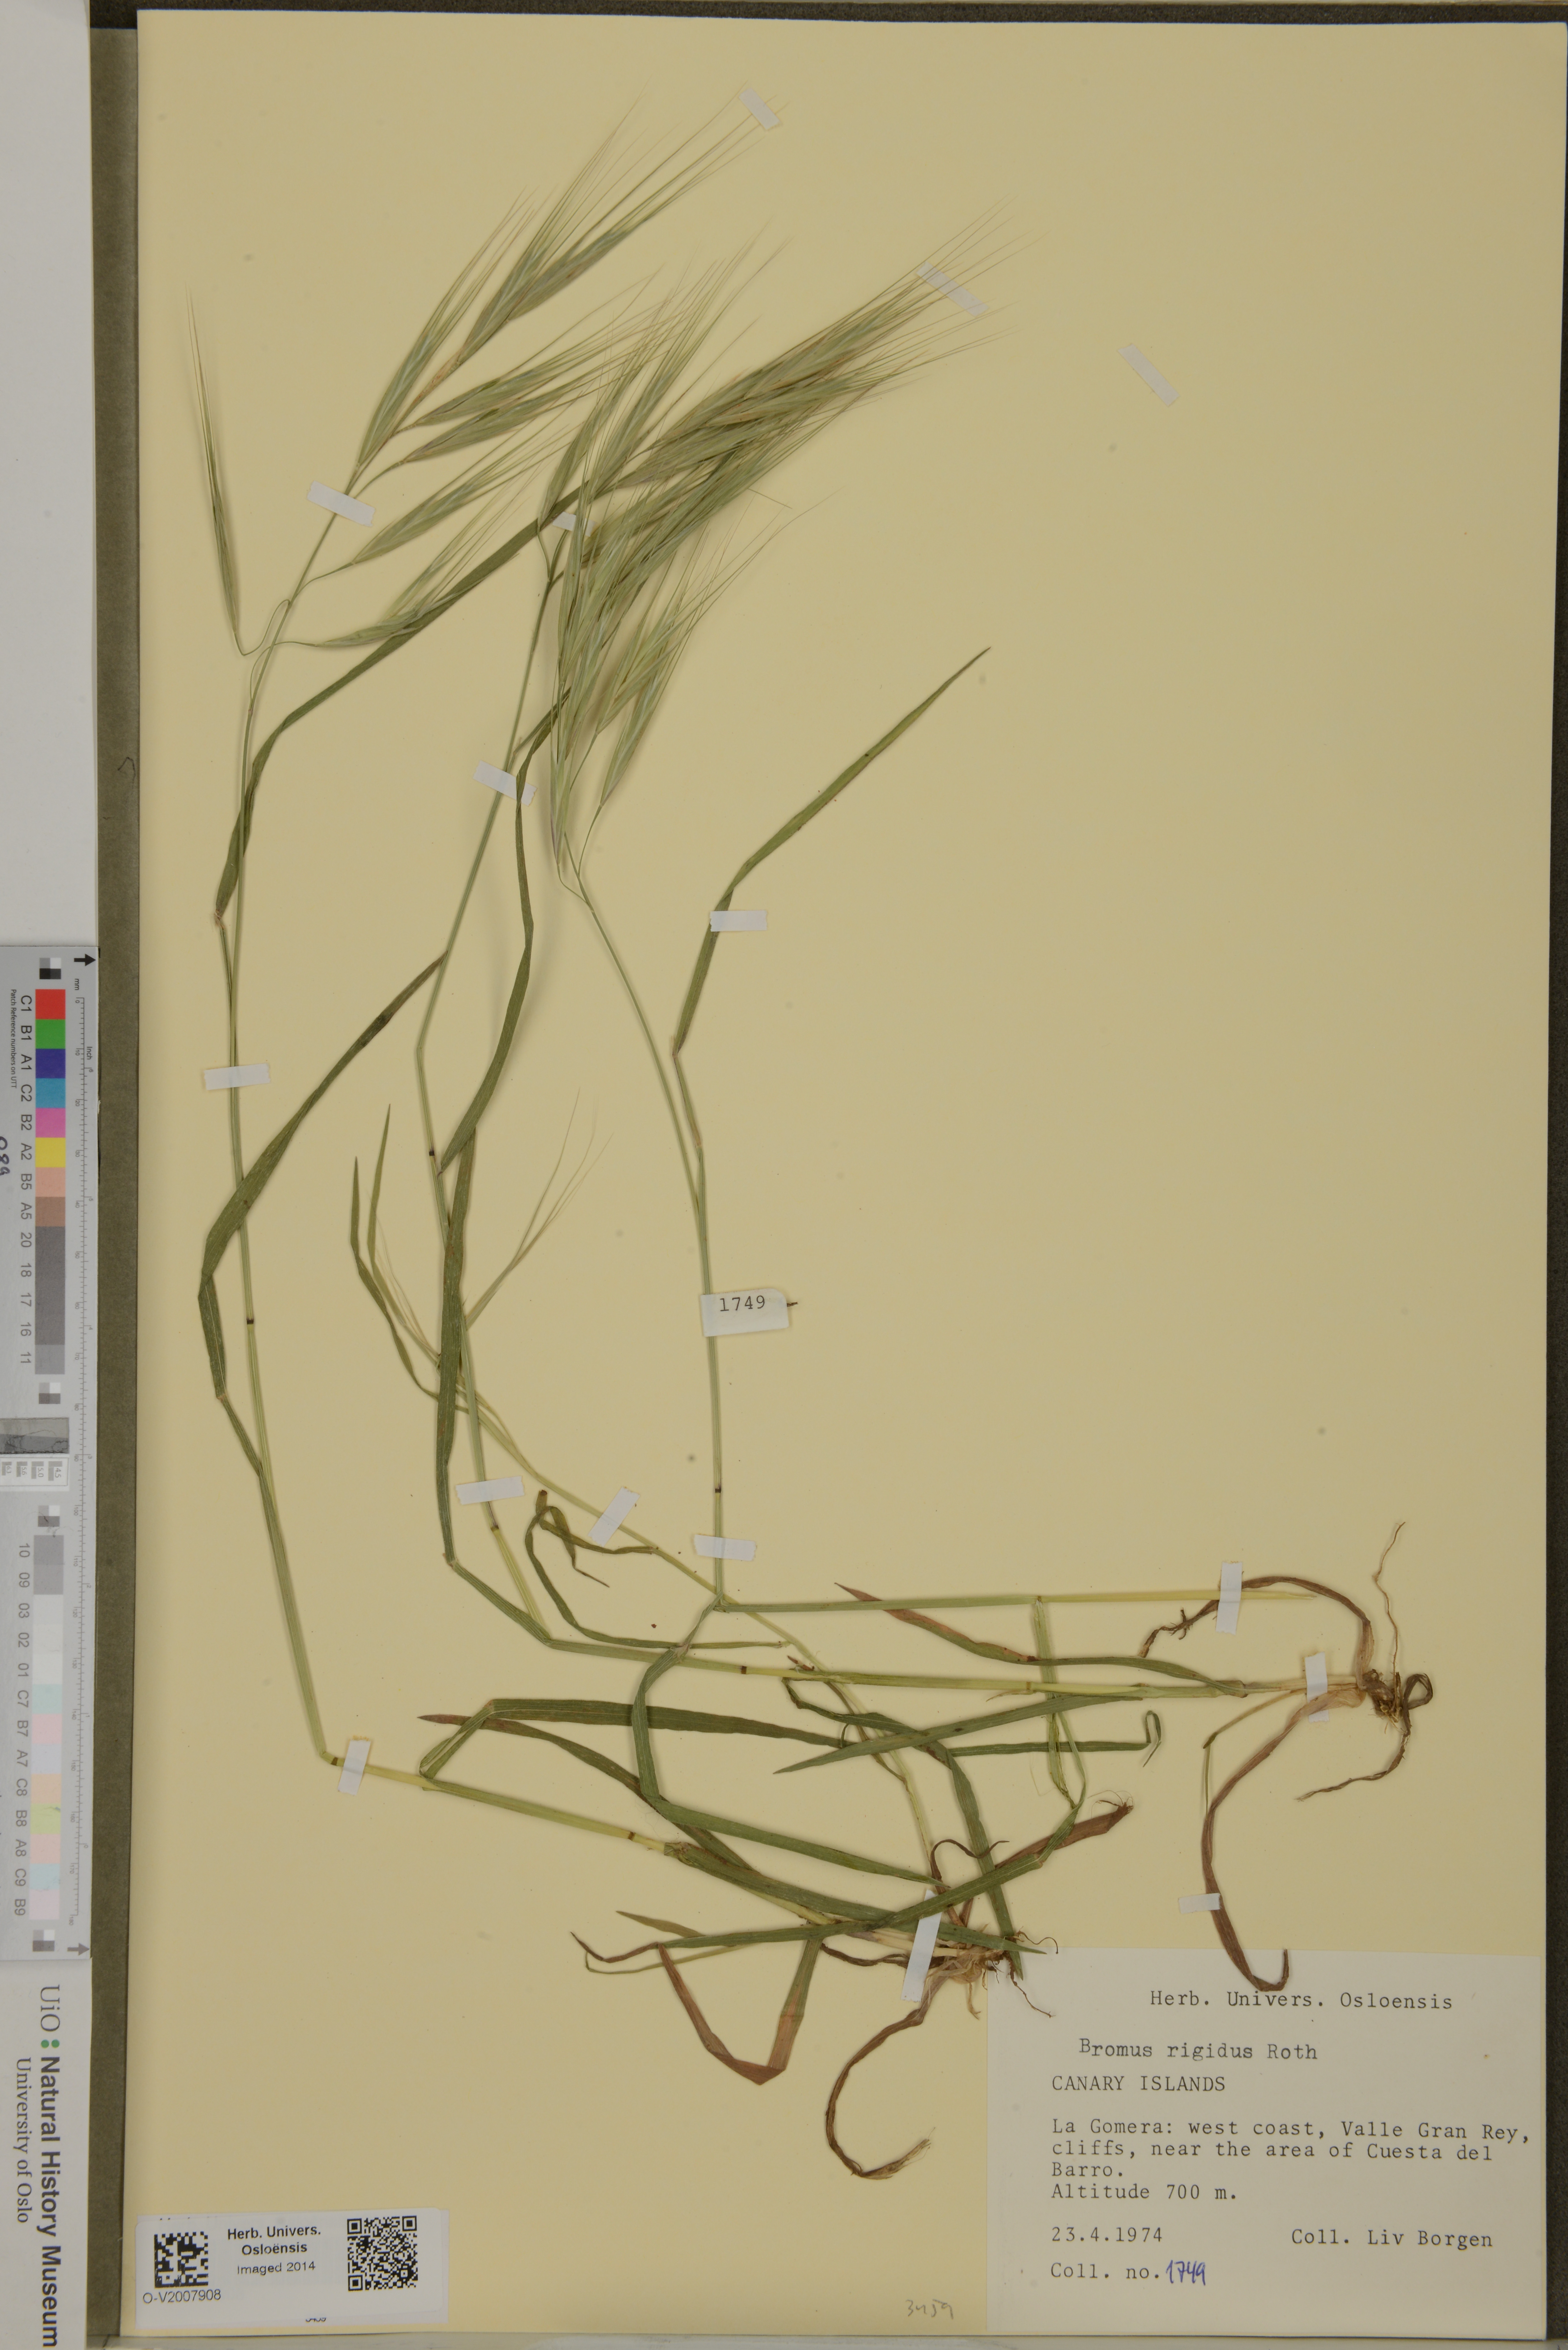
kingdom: Plantae
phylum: Tracheophyta
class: Liliopsida
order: Poales
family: Poaceae
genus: Bromus
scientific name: Bromus rigidus
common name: Ripgut brome
